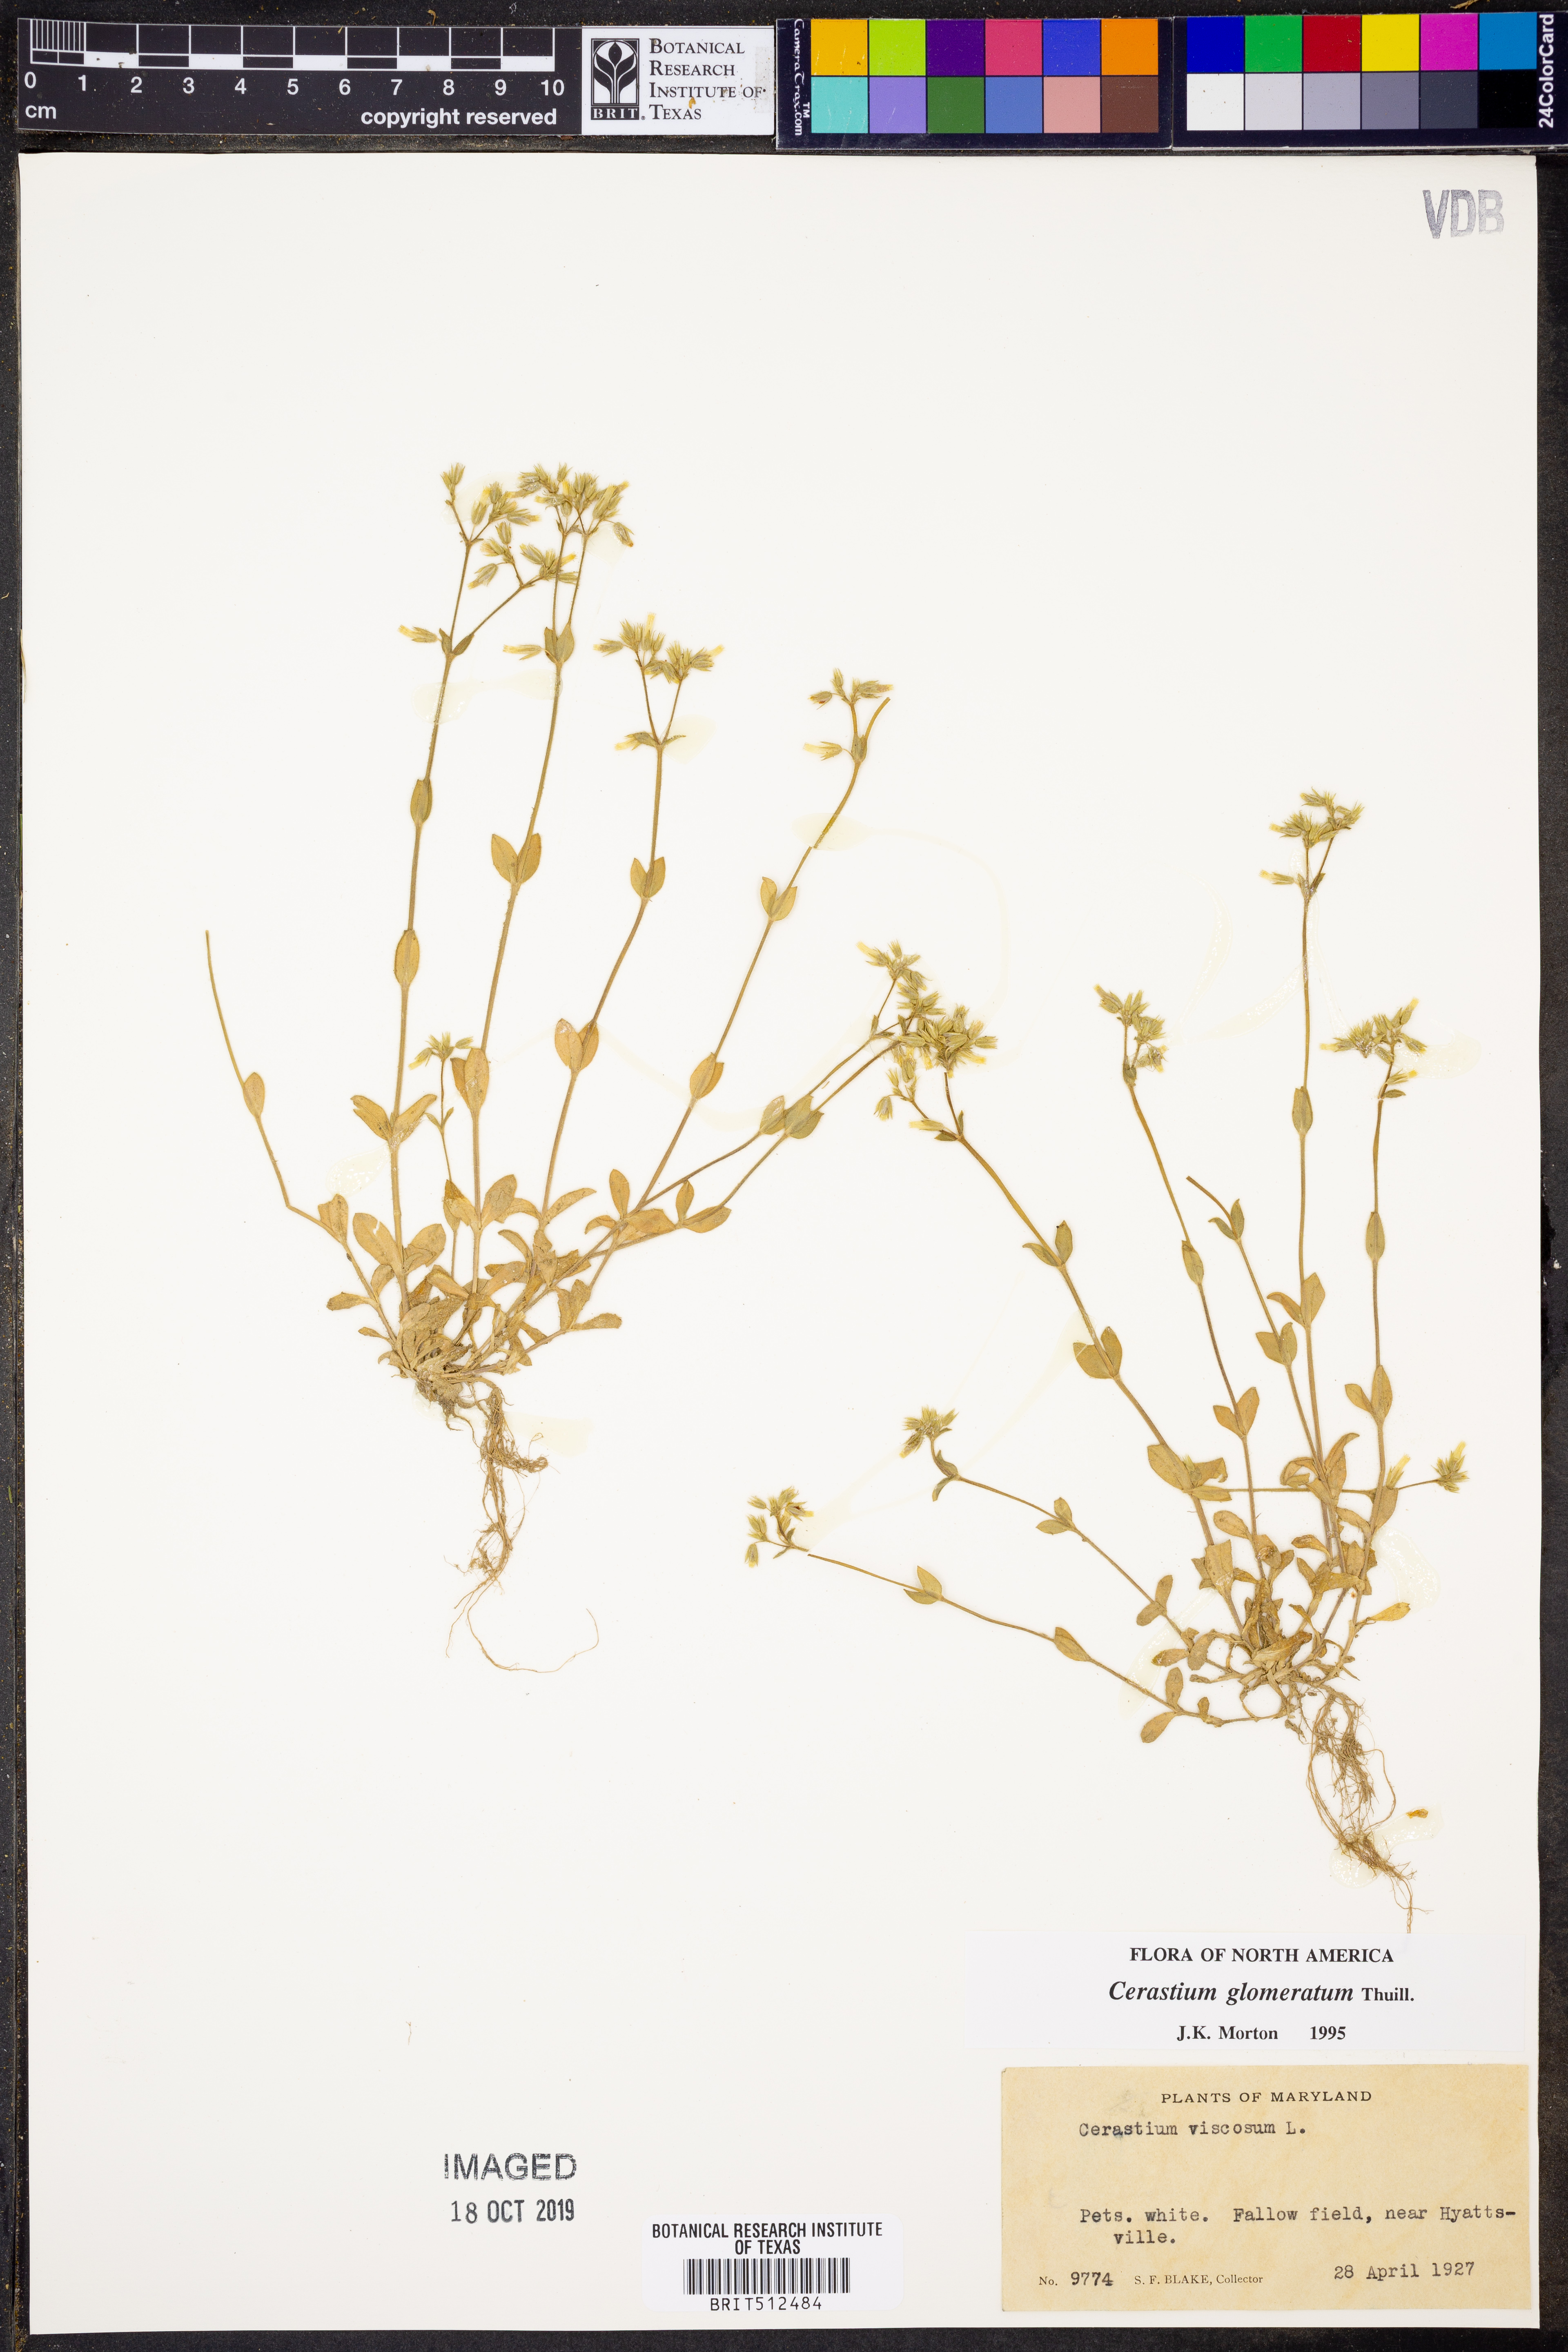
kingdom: Plantae
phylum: Tracheophyta
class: Magnoliopsida
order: Caryophyllales
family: Caryophyllaceae
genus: Cerastium
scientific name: Cerastium glomeratum
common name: Sticky chickweed
